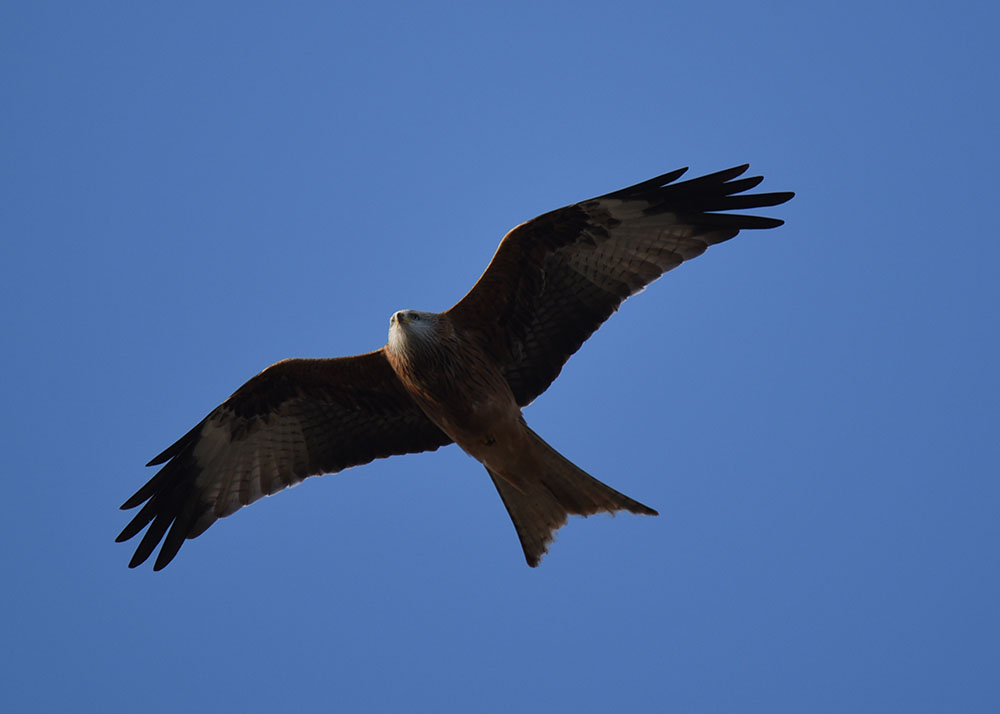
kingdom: Animalia
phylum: Chordata
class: Aves
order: Accipitriformes
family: Accipitridae
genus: Milvus
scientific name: Milvus milvus
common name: Red kite
